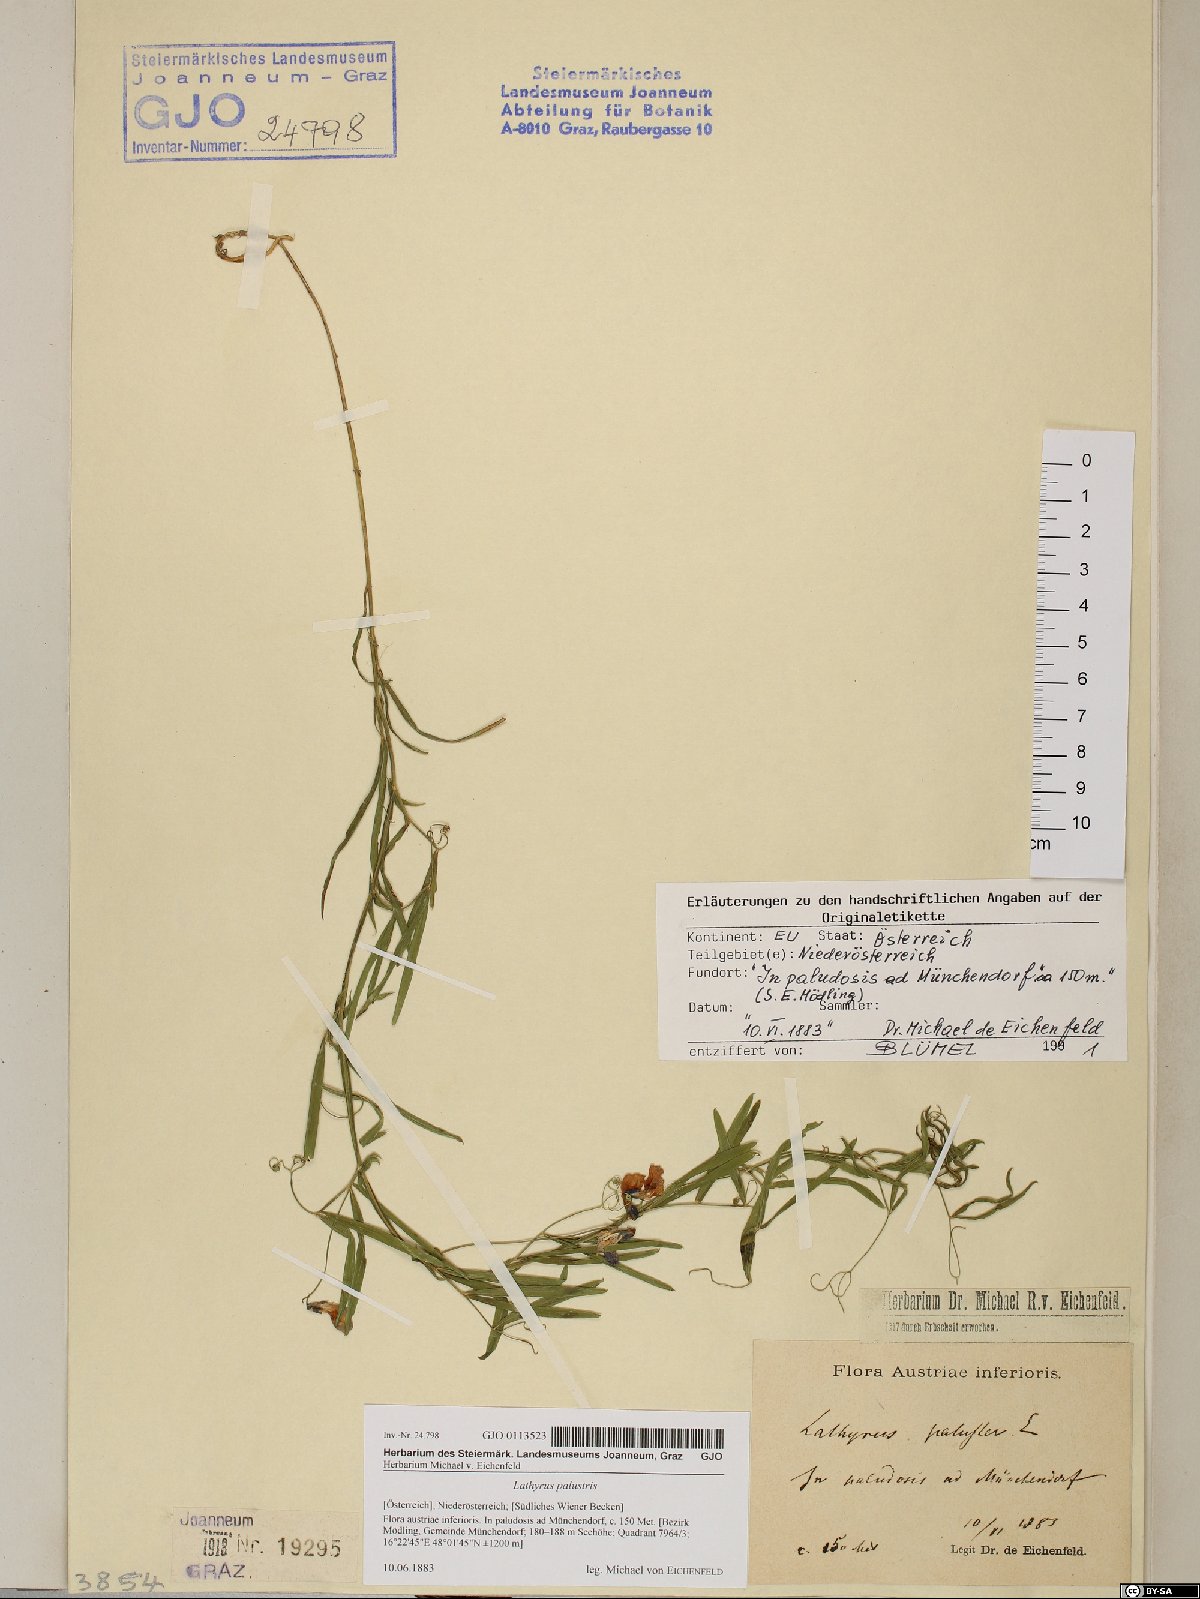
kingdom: Plantae
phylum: Tracheophyta
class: Magnoliopsida
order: Fabales
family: Fabaceae
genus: Lathyrus
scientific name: Lathyrus palustris
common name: Marsh pea
